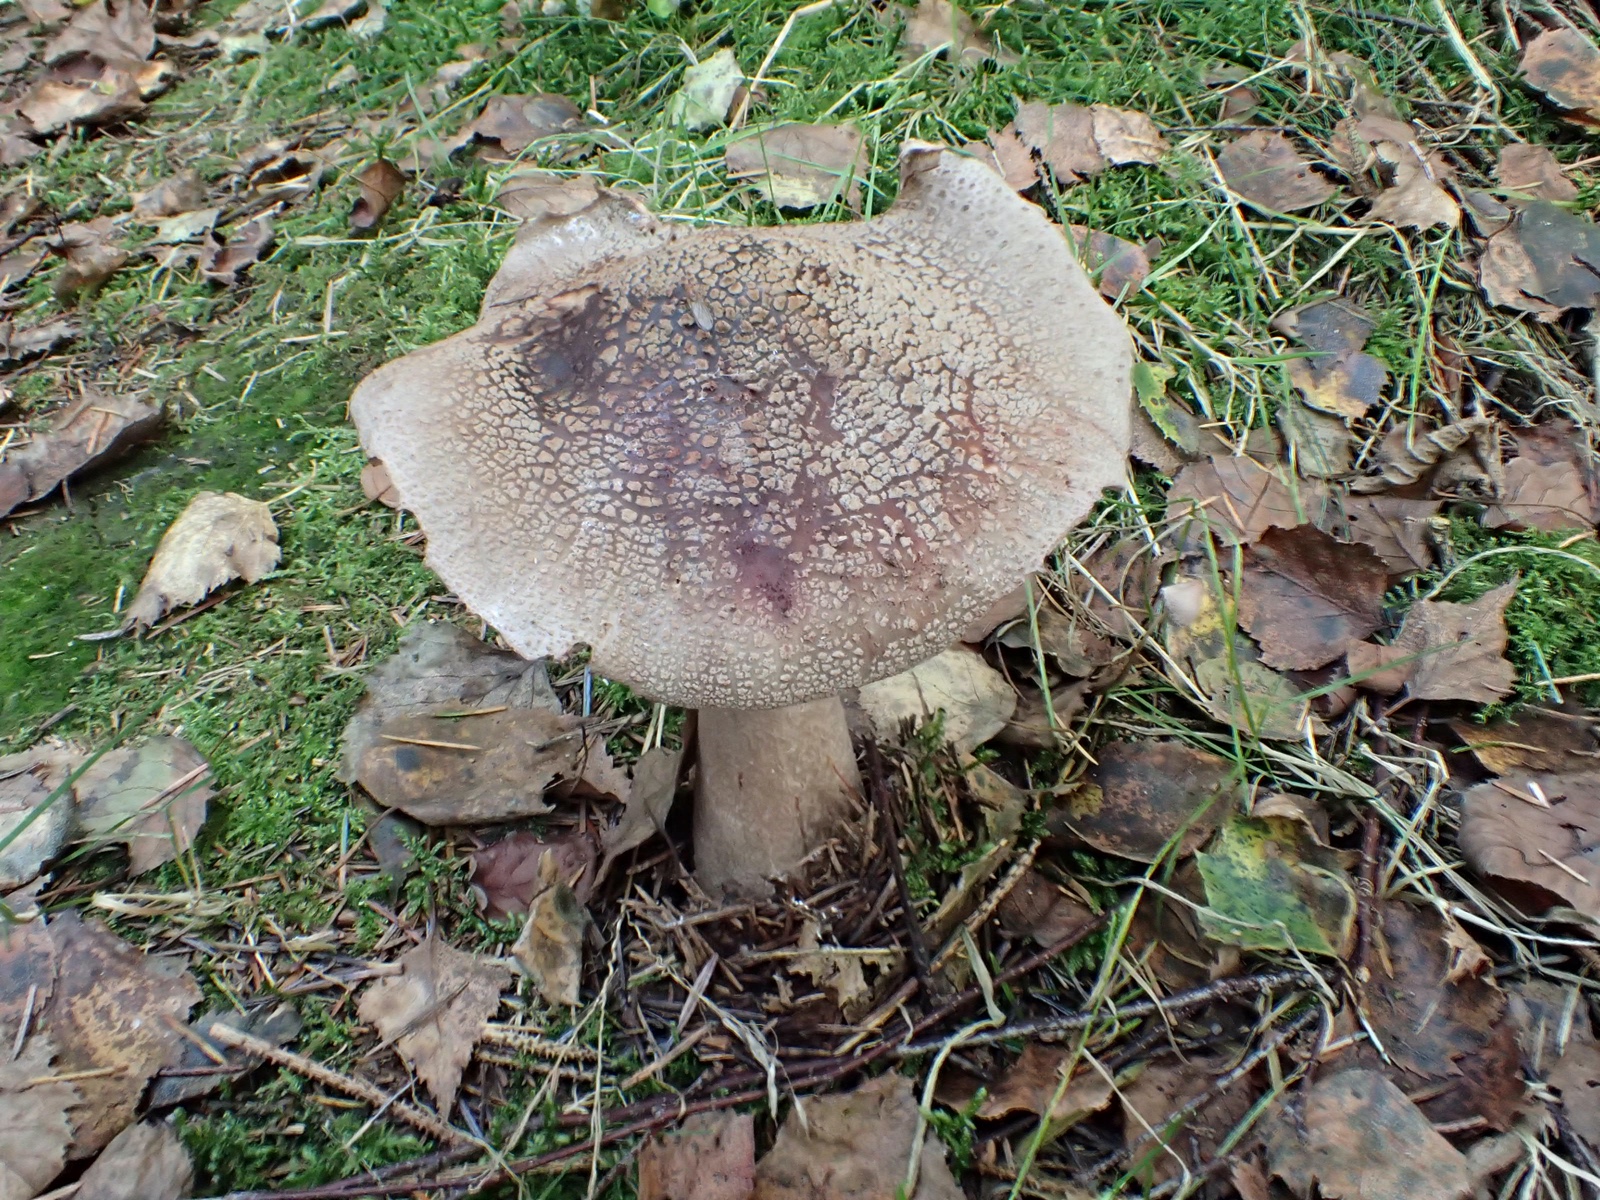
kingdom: Fungi
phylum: Basidiomycota
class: Agaricomycetes
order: Agaricales
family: Amanitaceae
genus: Amanita
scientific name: Amanita rubescens
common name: rødmende fluesvamp
